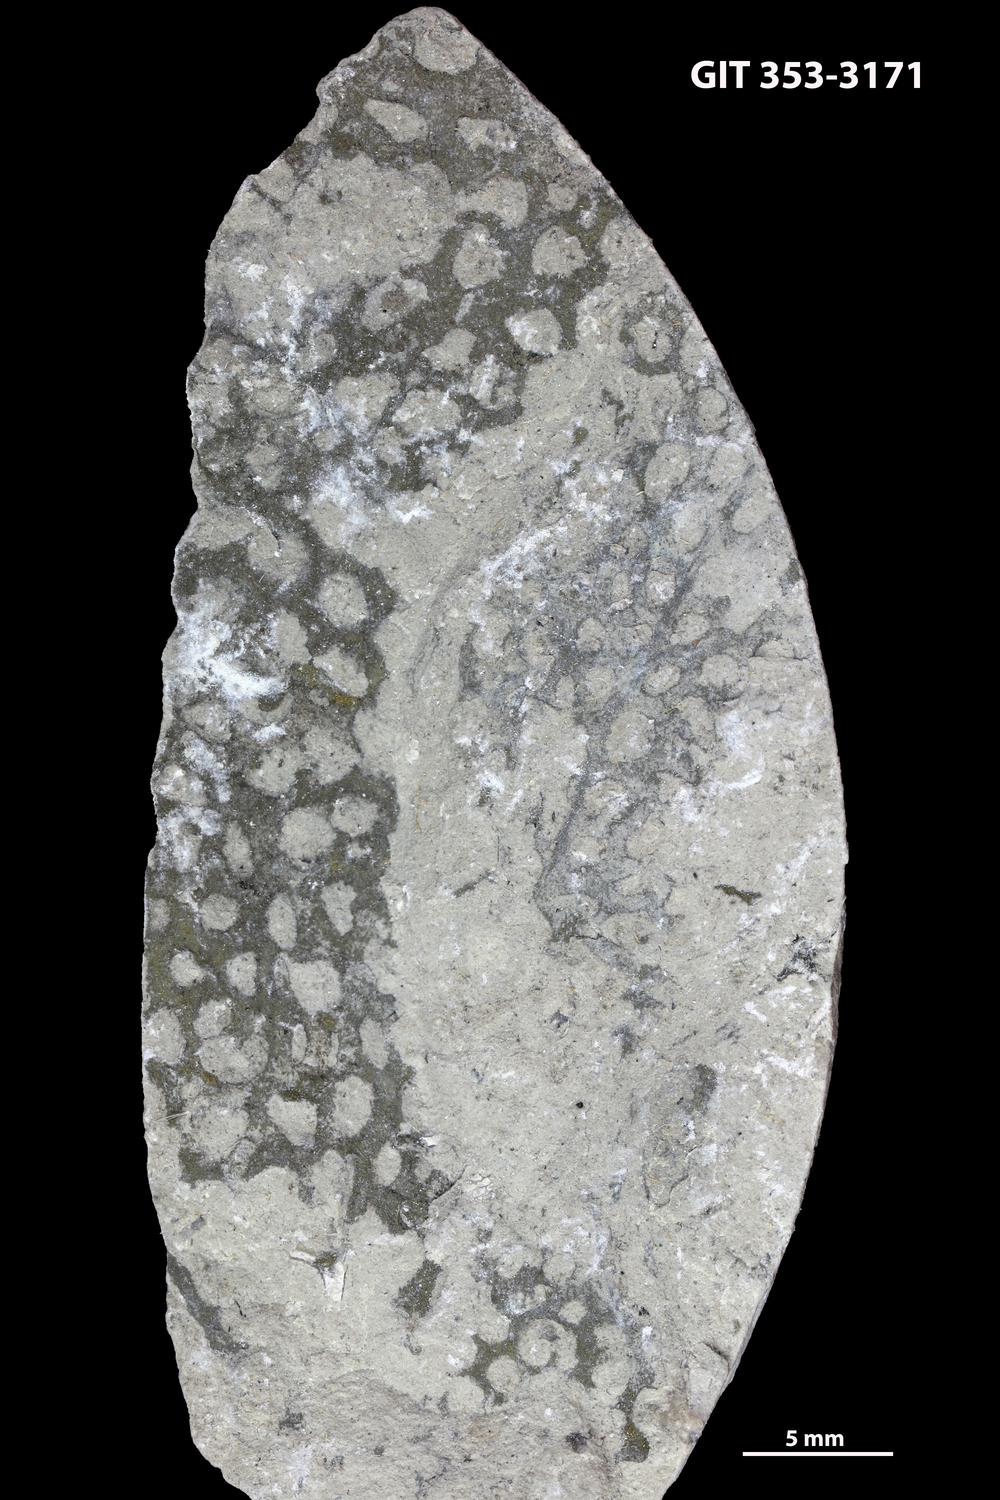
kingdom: Animalia
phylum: Hemichordata
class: Pterobranchia
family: Dendrograptidae
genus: Polygonograptus
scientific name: Polygonograptus
